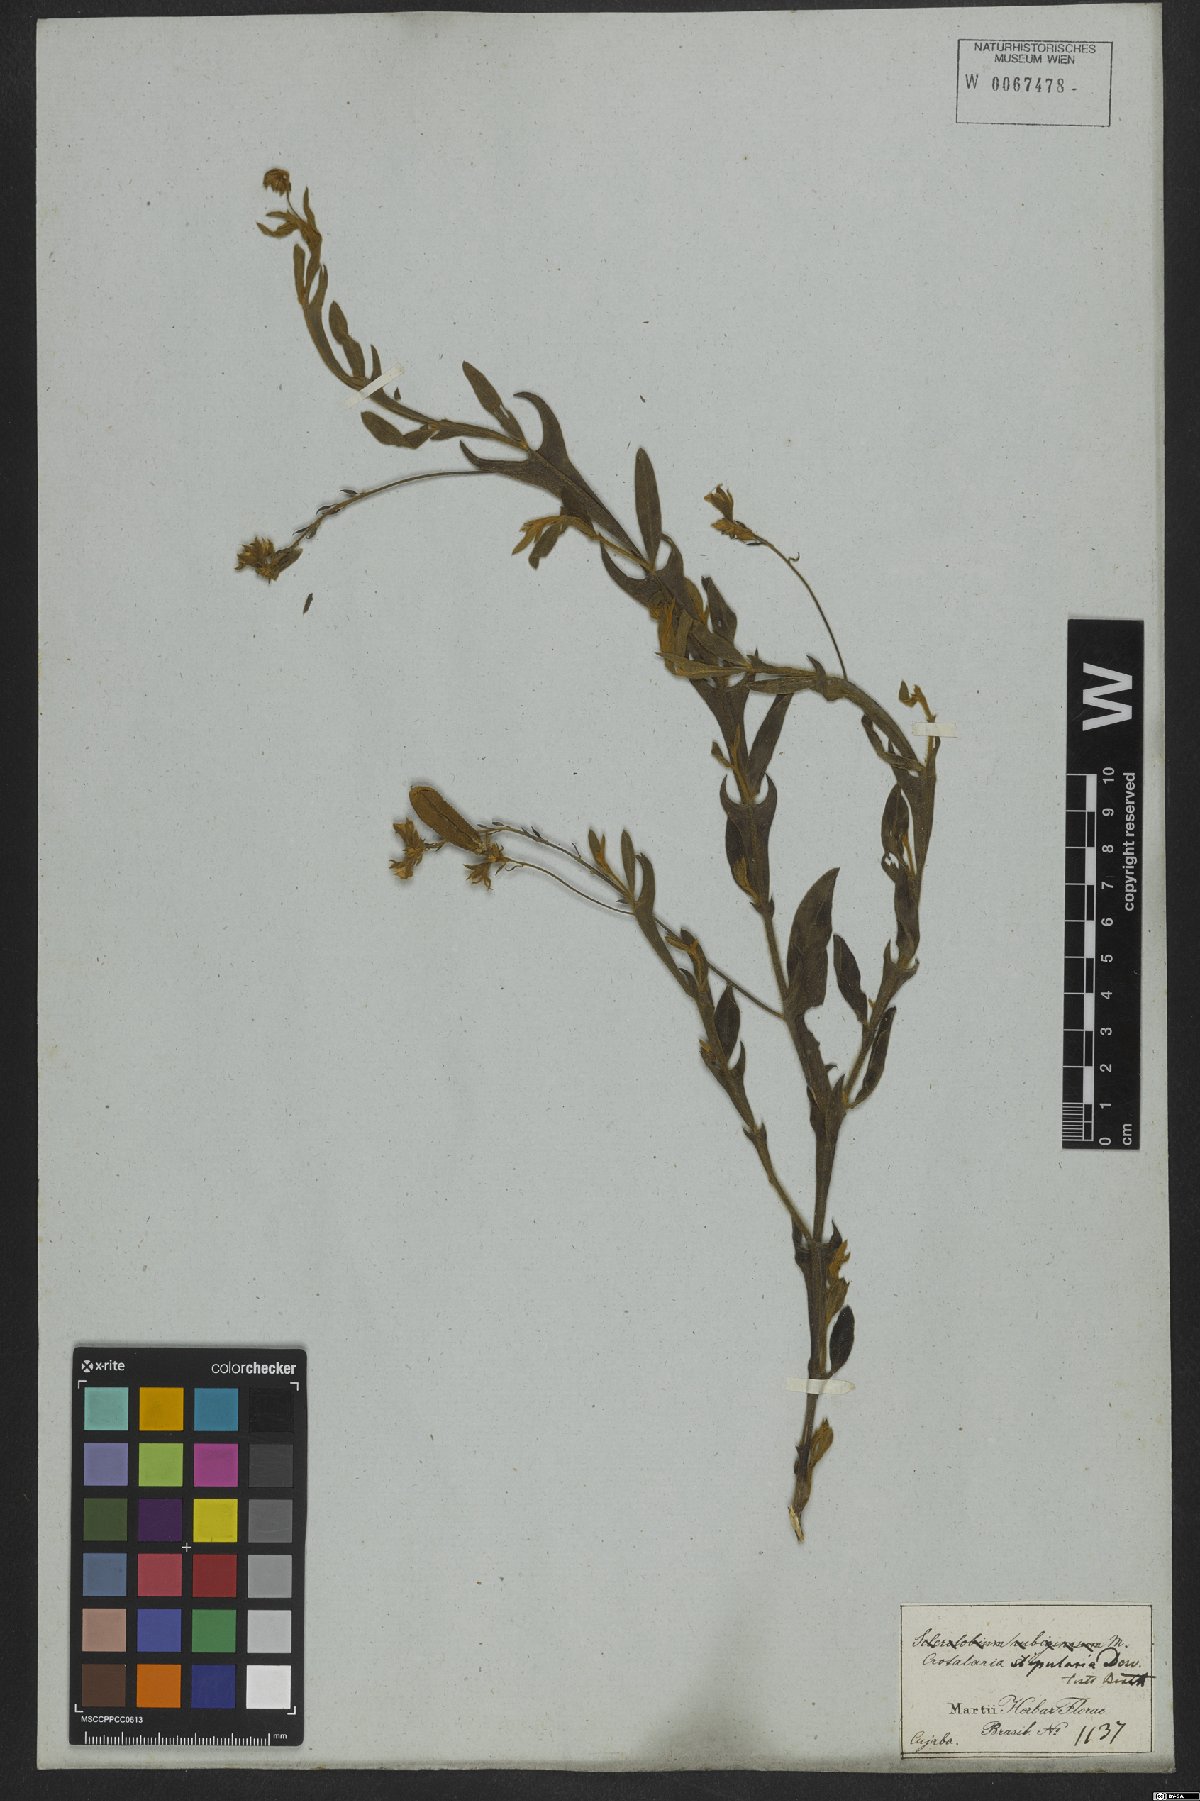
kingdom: Plantae
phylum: Tracheophyta
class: Magnoliopsida
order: Fabales
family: Fabaceae
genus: Crotalaria
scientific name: Crotalaria stipularia
